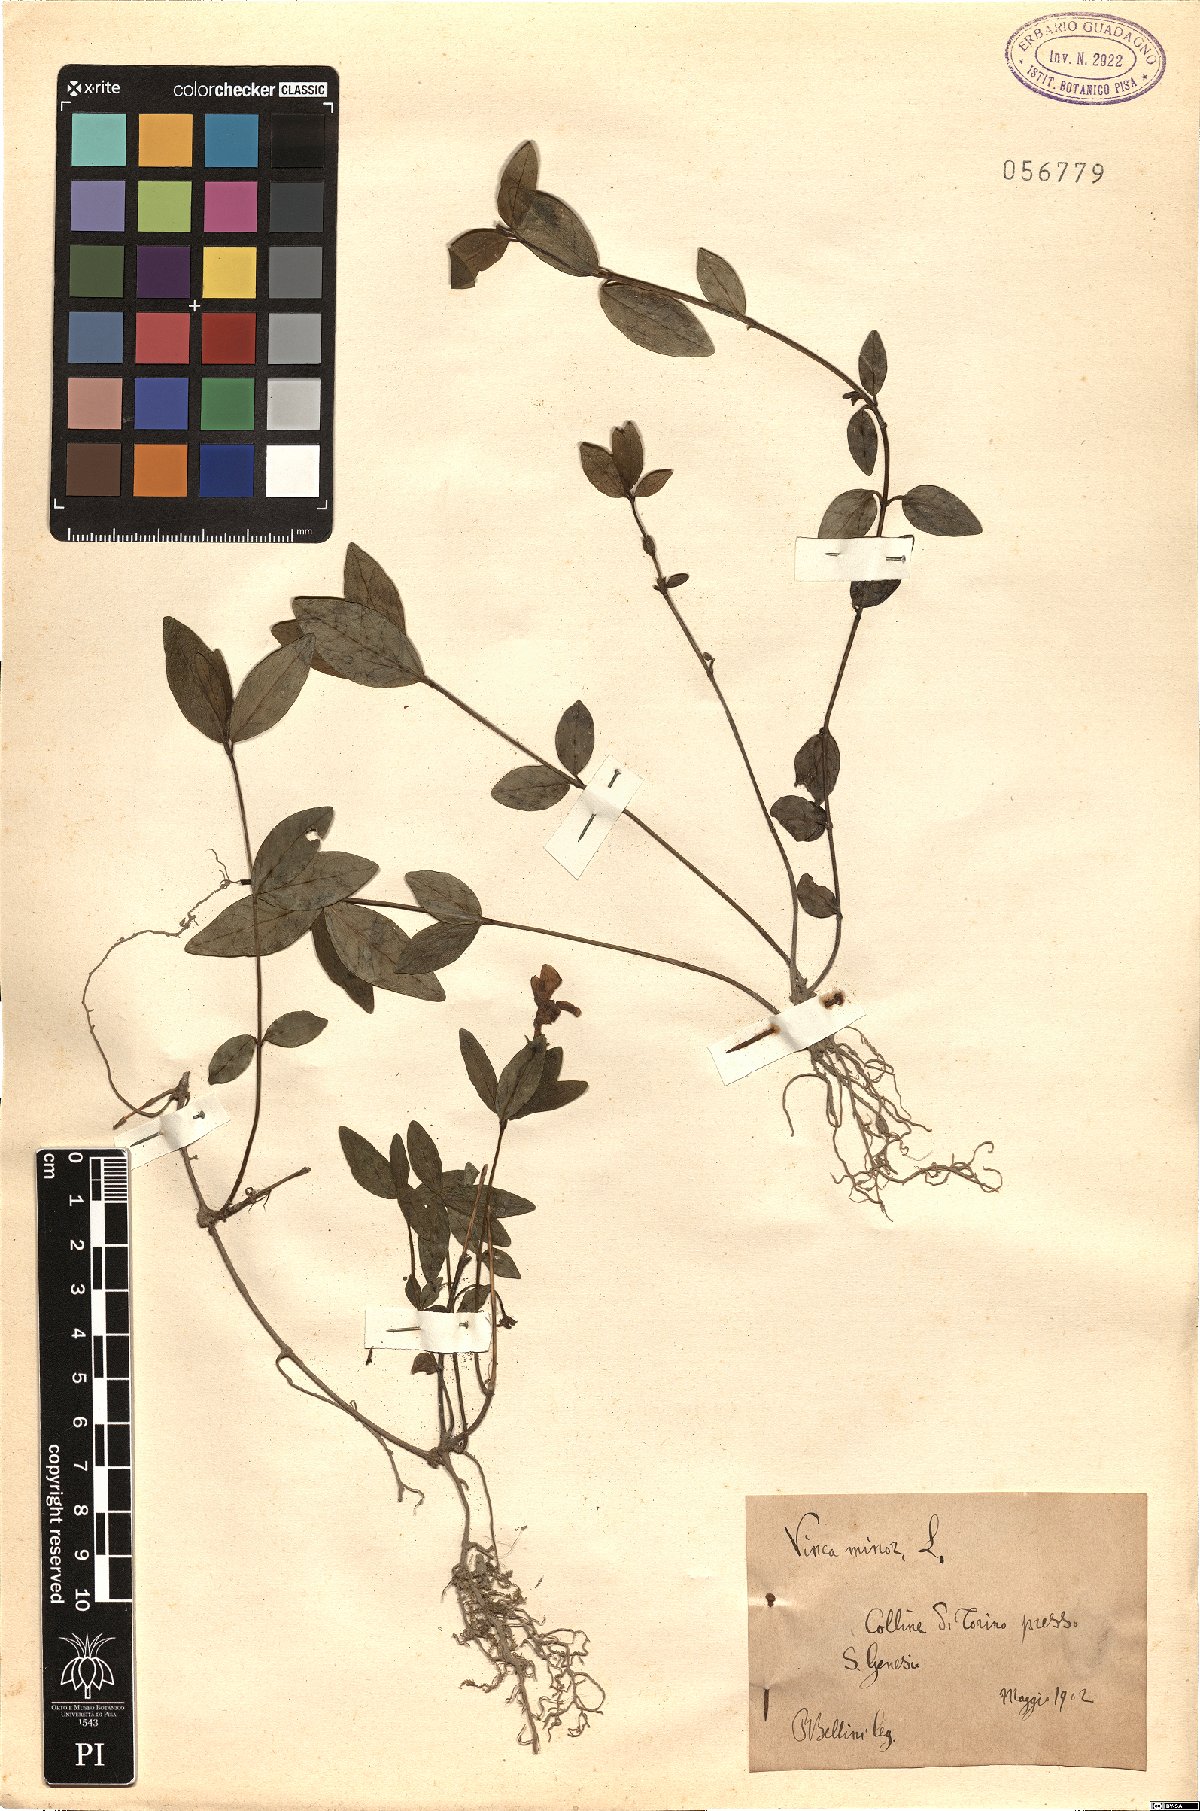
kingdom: Plantae
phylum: Tracheophyta
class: Magnoliopsida
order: Gentianales
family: Apocynaceae
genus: Vinca
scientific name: Vinca minor
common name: Lesser periwinkle
